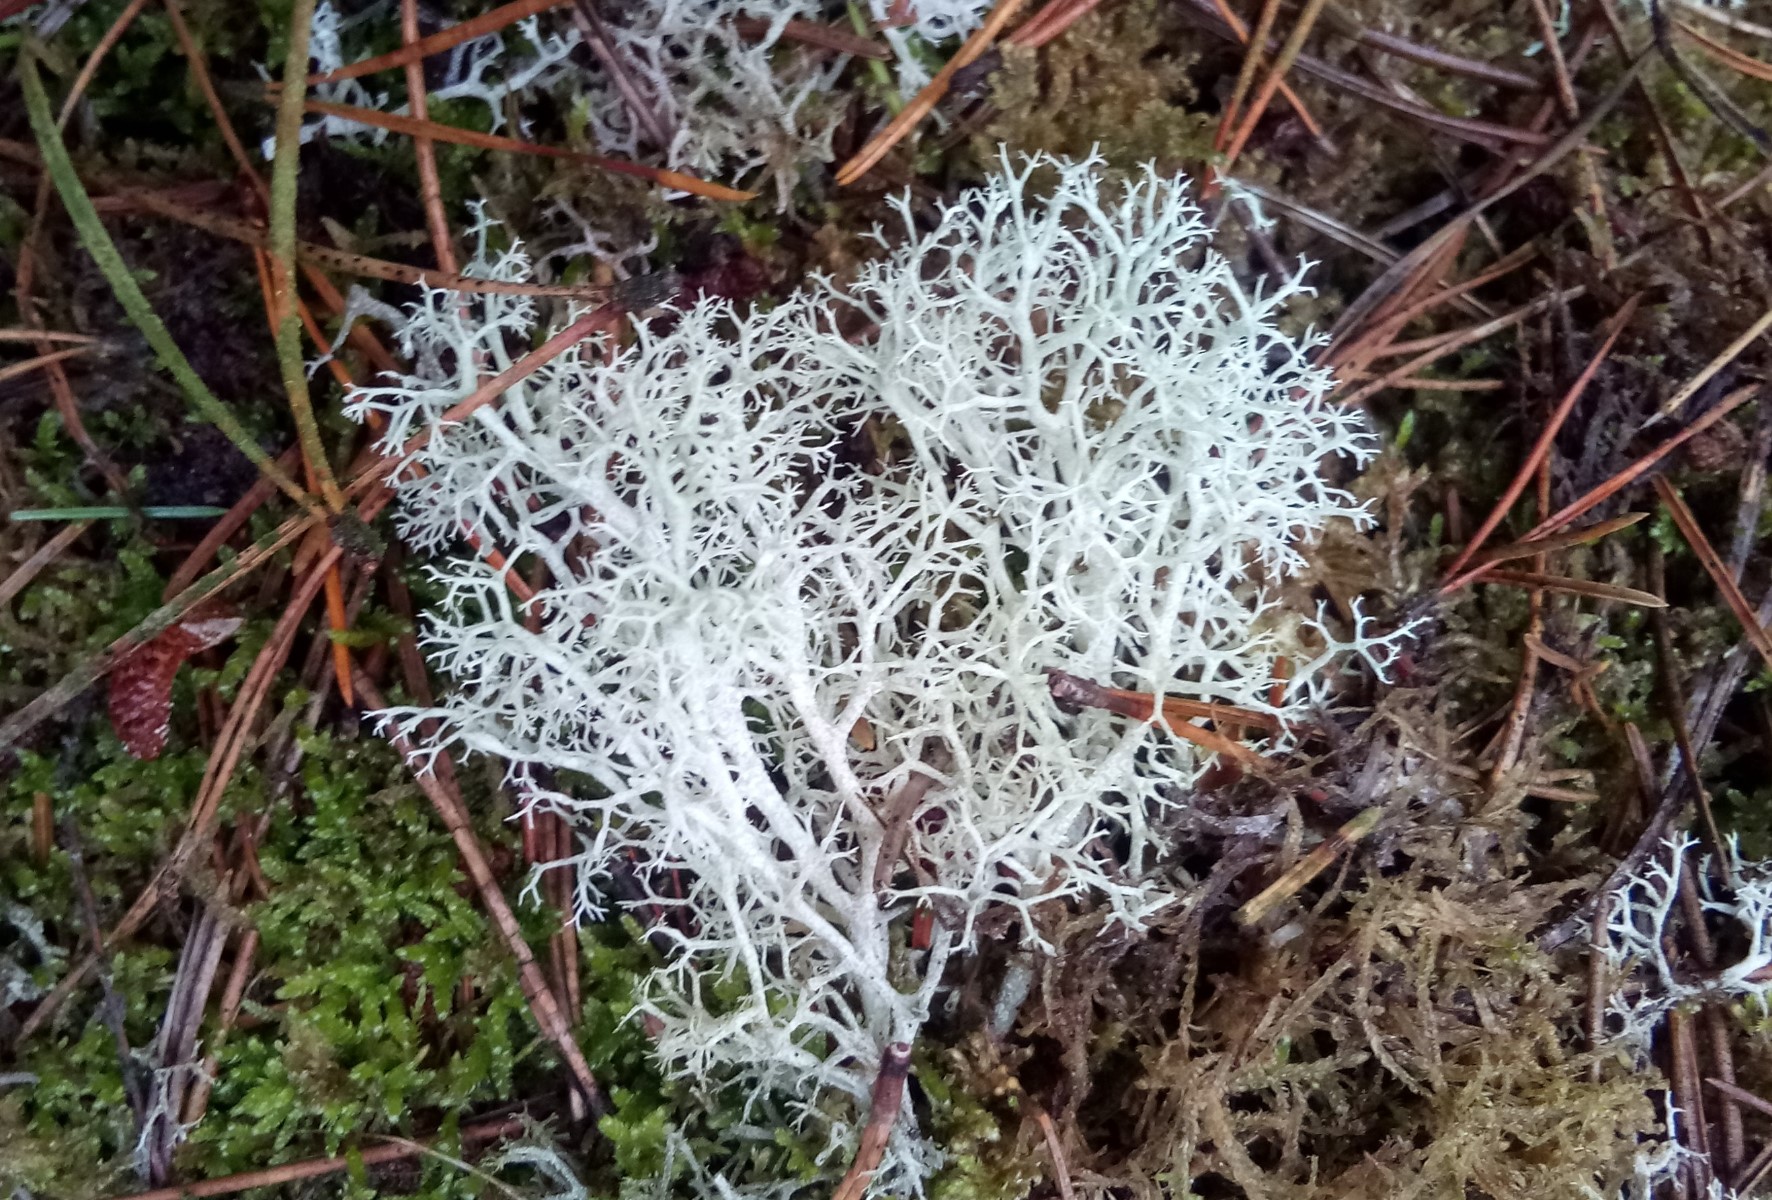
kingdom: Fungi
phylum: Ascomycota
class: Lecanoromycetes
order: Lecanorales
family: Cladoniaceae
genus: Cladonia
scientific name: Cladonia portentosa
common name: hede-rensdyrlav
